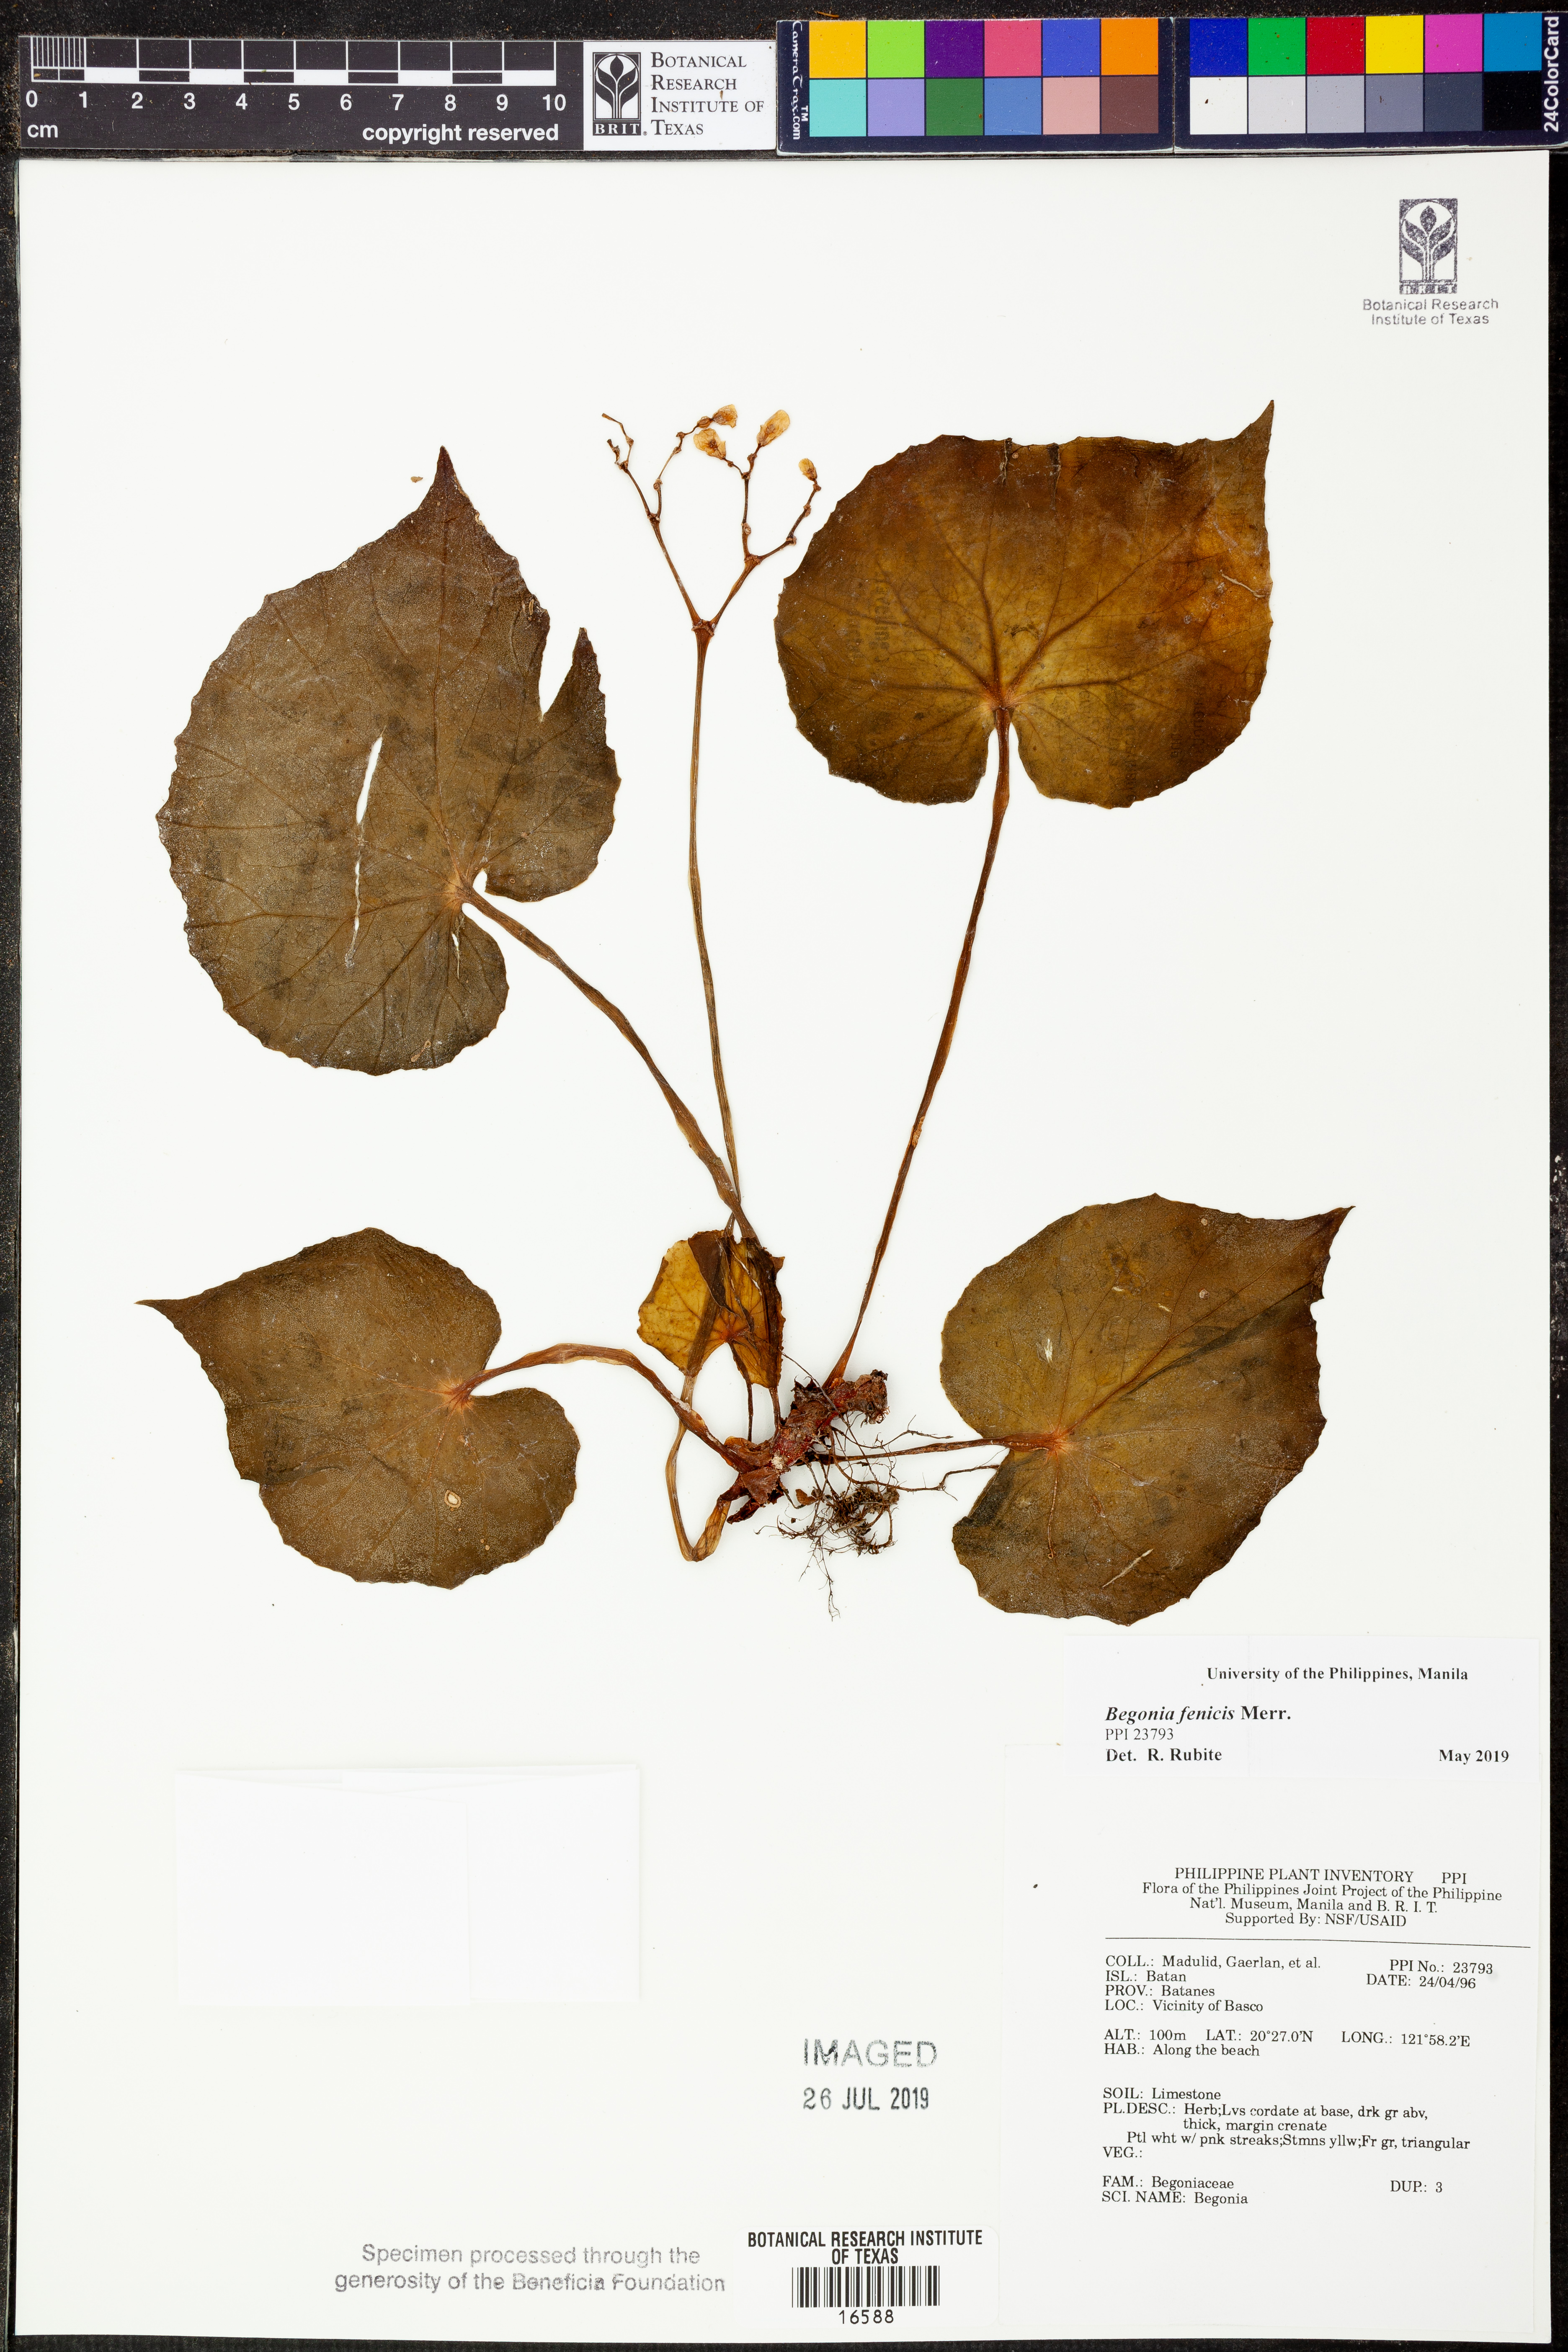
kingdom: Plantae
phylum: Tracheophyta
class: Magnoliopsida
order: Cucurbitales
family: Begoniaceae
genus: Begonia
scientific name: Begonia fenicis
